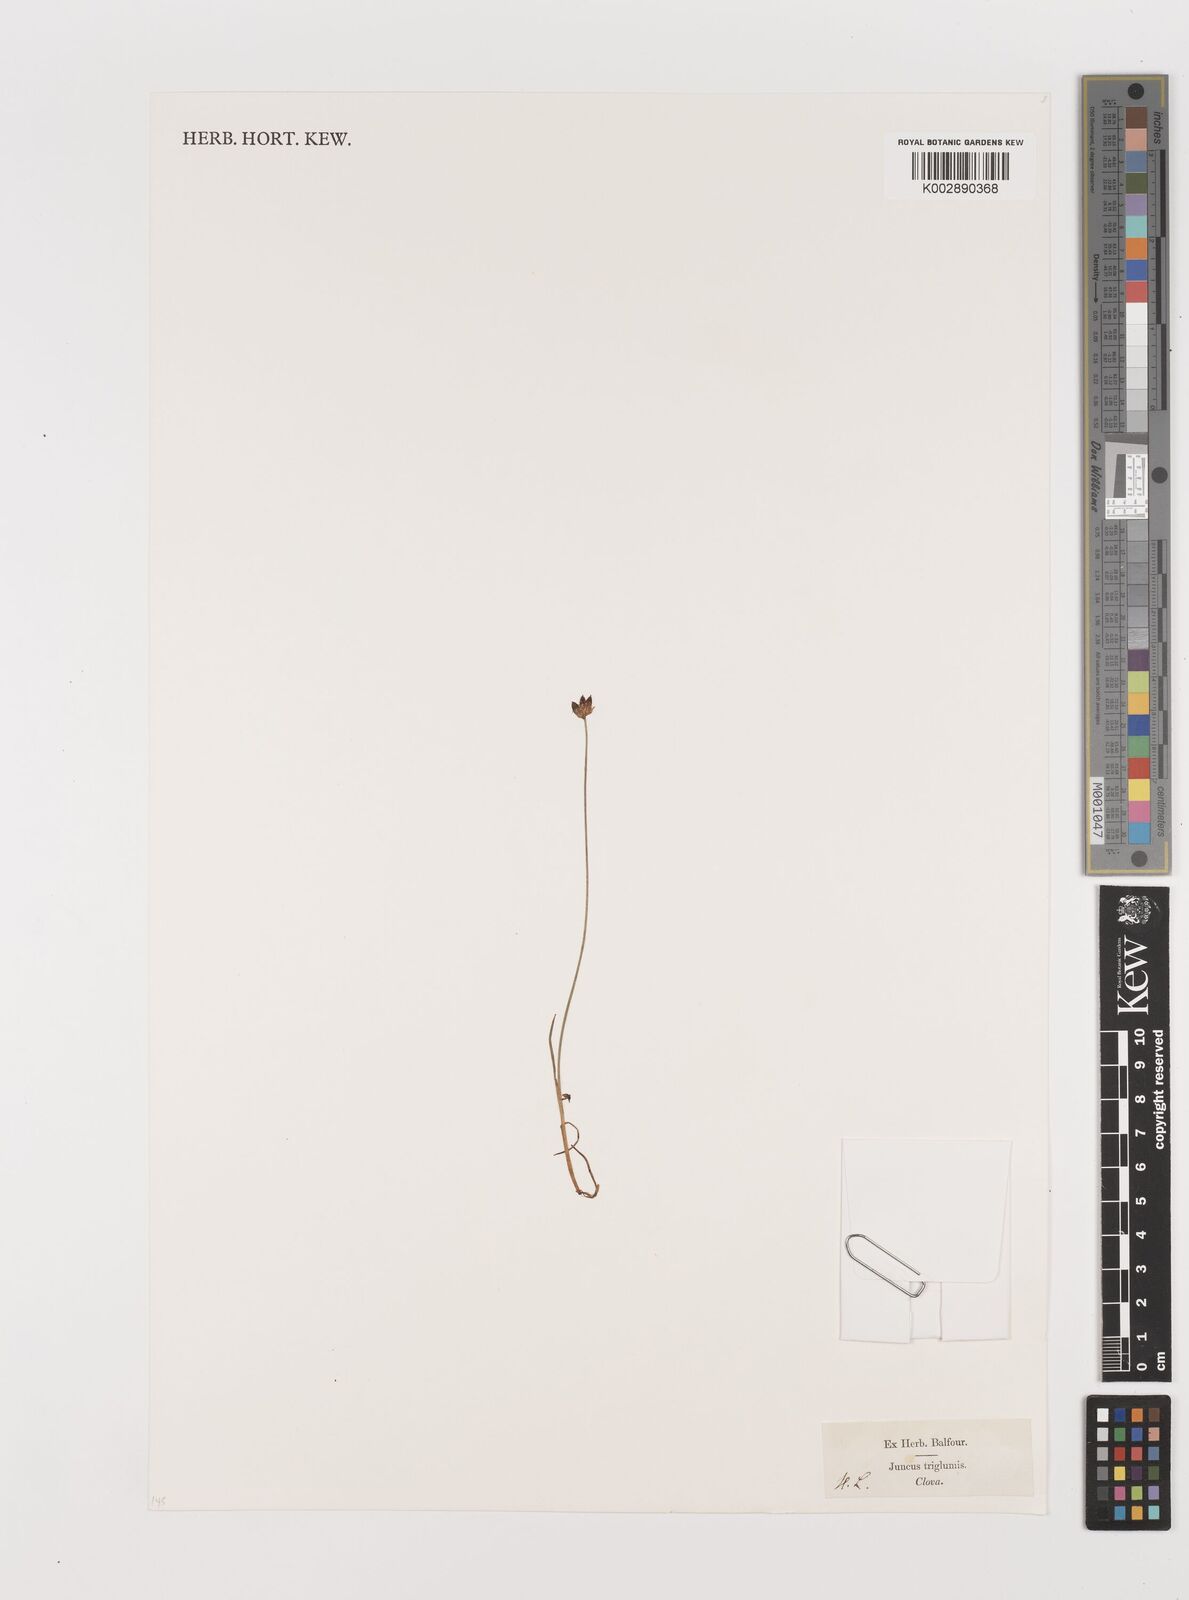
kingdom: Plantae
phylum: Tracheophyta
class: Liliopsida
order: Poales
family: Juncaceae
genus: Juncus
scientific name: Juncus triglumis
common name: Three-flowered rush
